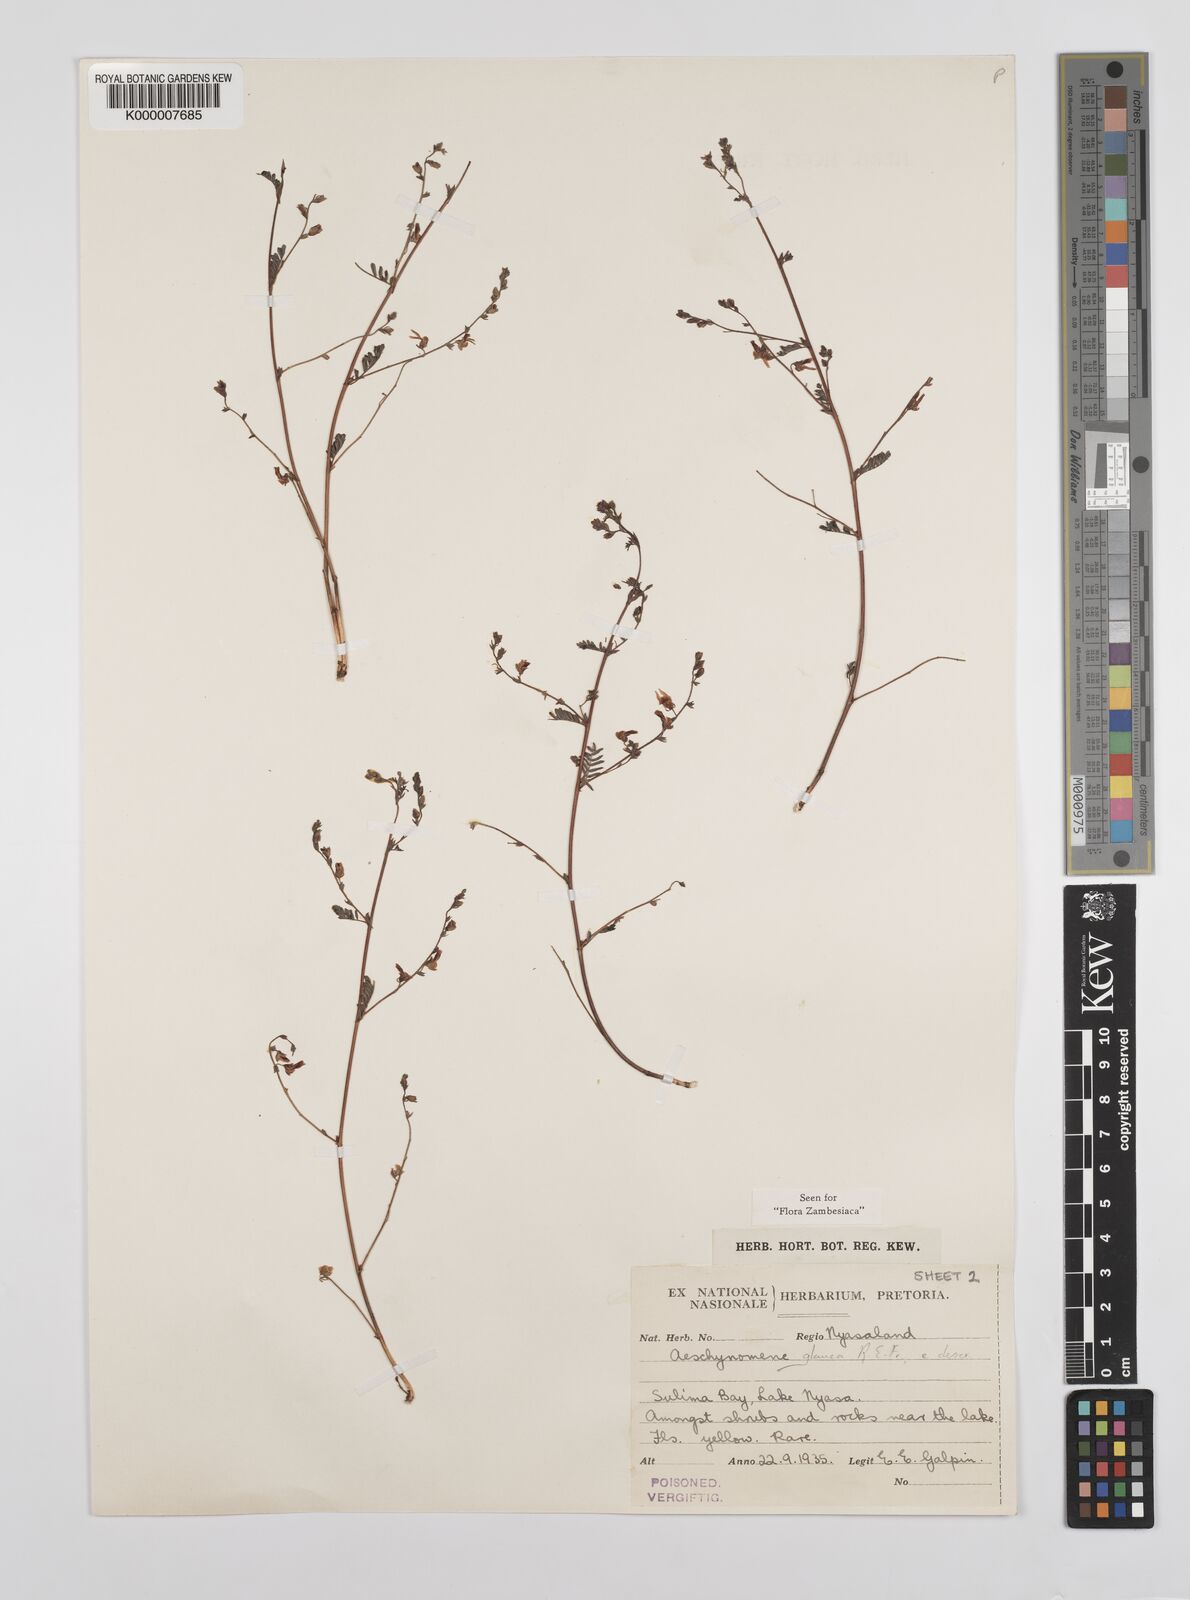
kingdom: Plantae
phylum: Tracheophyta
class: Magnoliopsida
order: Fabales
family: Fabaceae
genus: Aeschynomene
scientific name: Aeschynomene glauca
